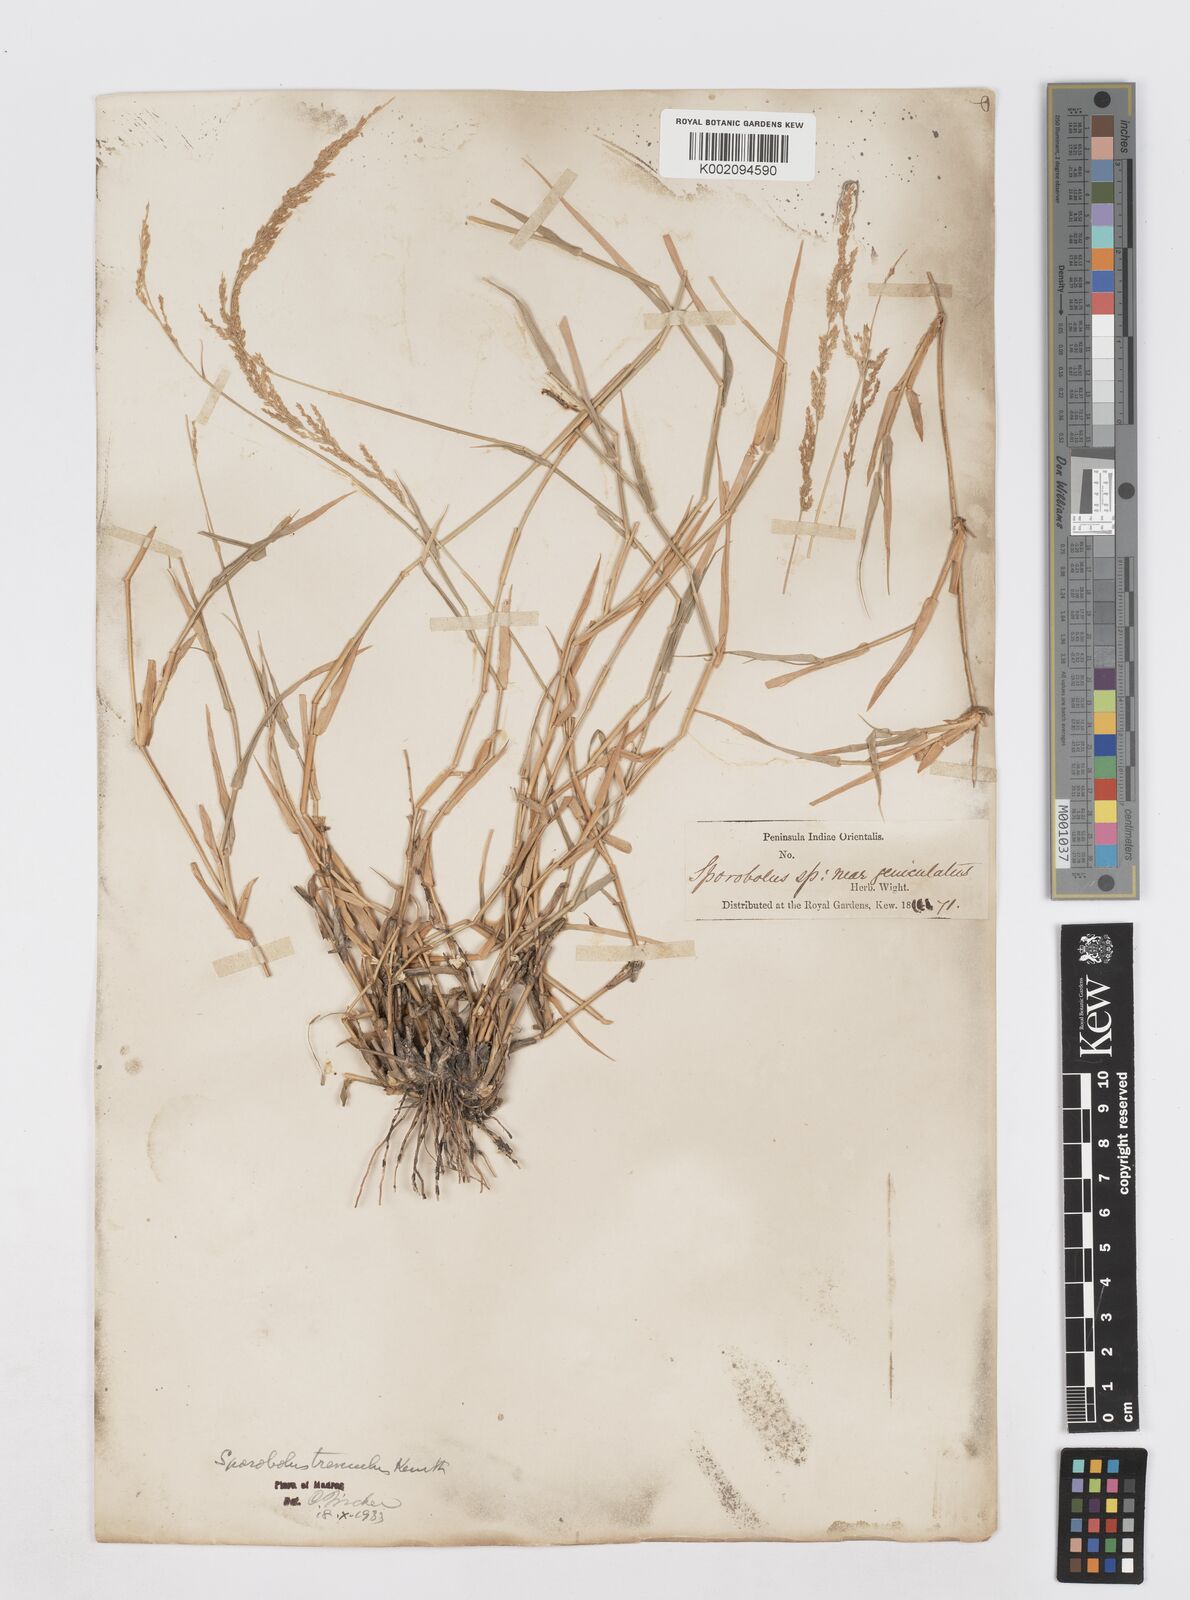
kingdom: Plantae
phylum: Tracheophyta
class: Liliopsida
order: Poales
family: Poaceae
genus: Sporobolus
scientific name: Sporobolus virginicus
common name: Beach dropseed
